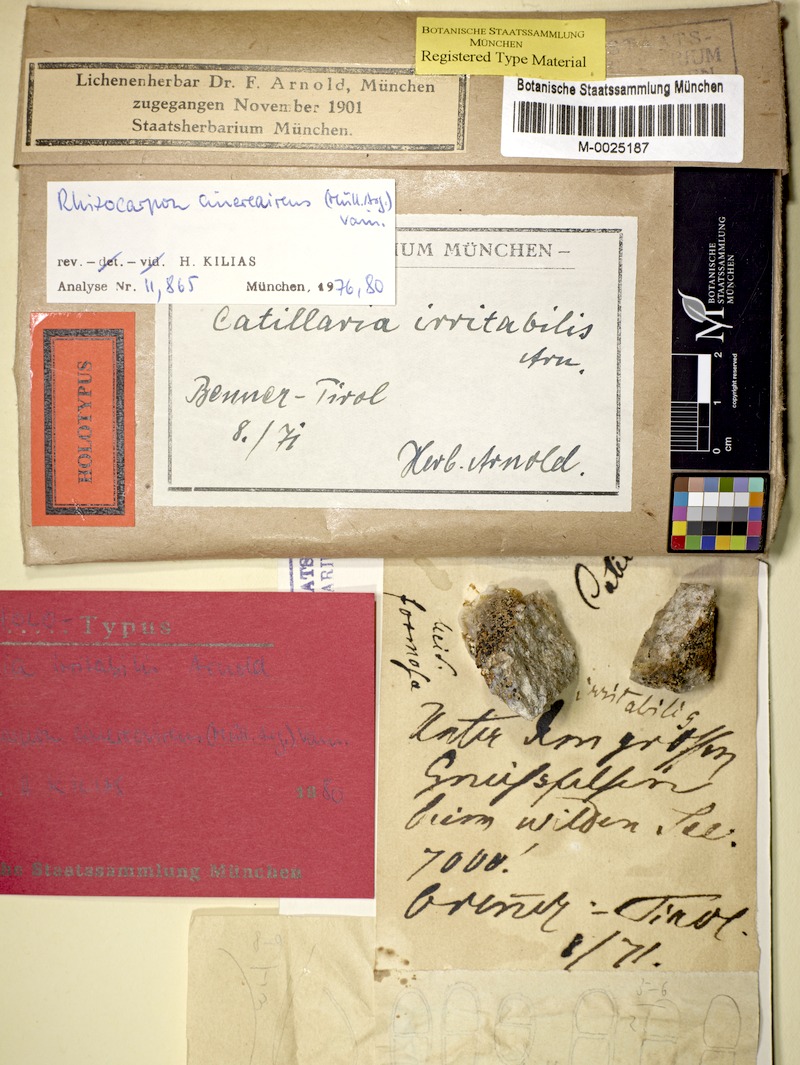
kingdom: Fungi
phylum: Ascomycota
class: Lecanoromycetes
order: Rhizocarpales
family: Rhizocarpaceae
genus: Rhizocarpon
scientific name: Rhizocarpon cinereovirens
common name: Grayish green map lichen
